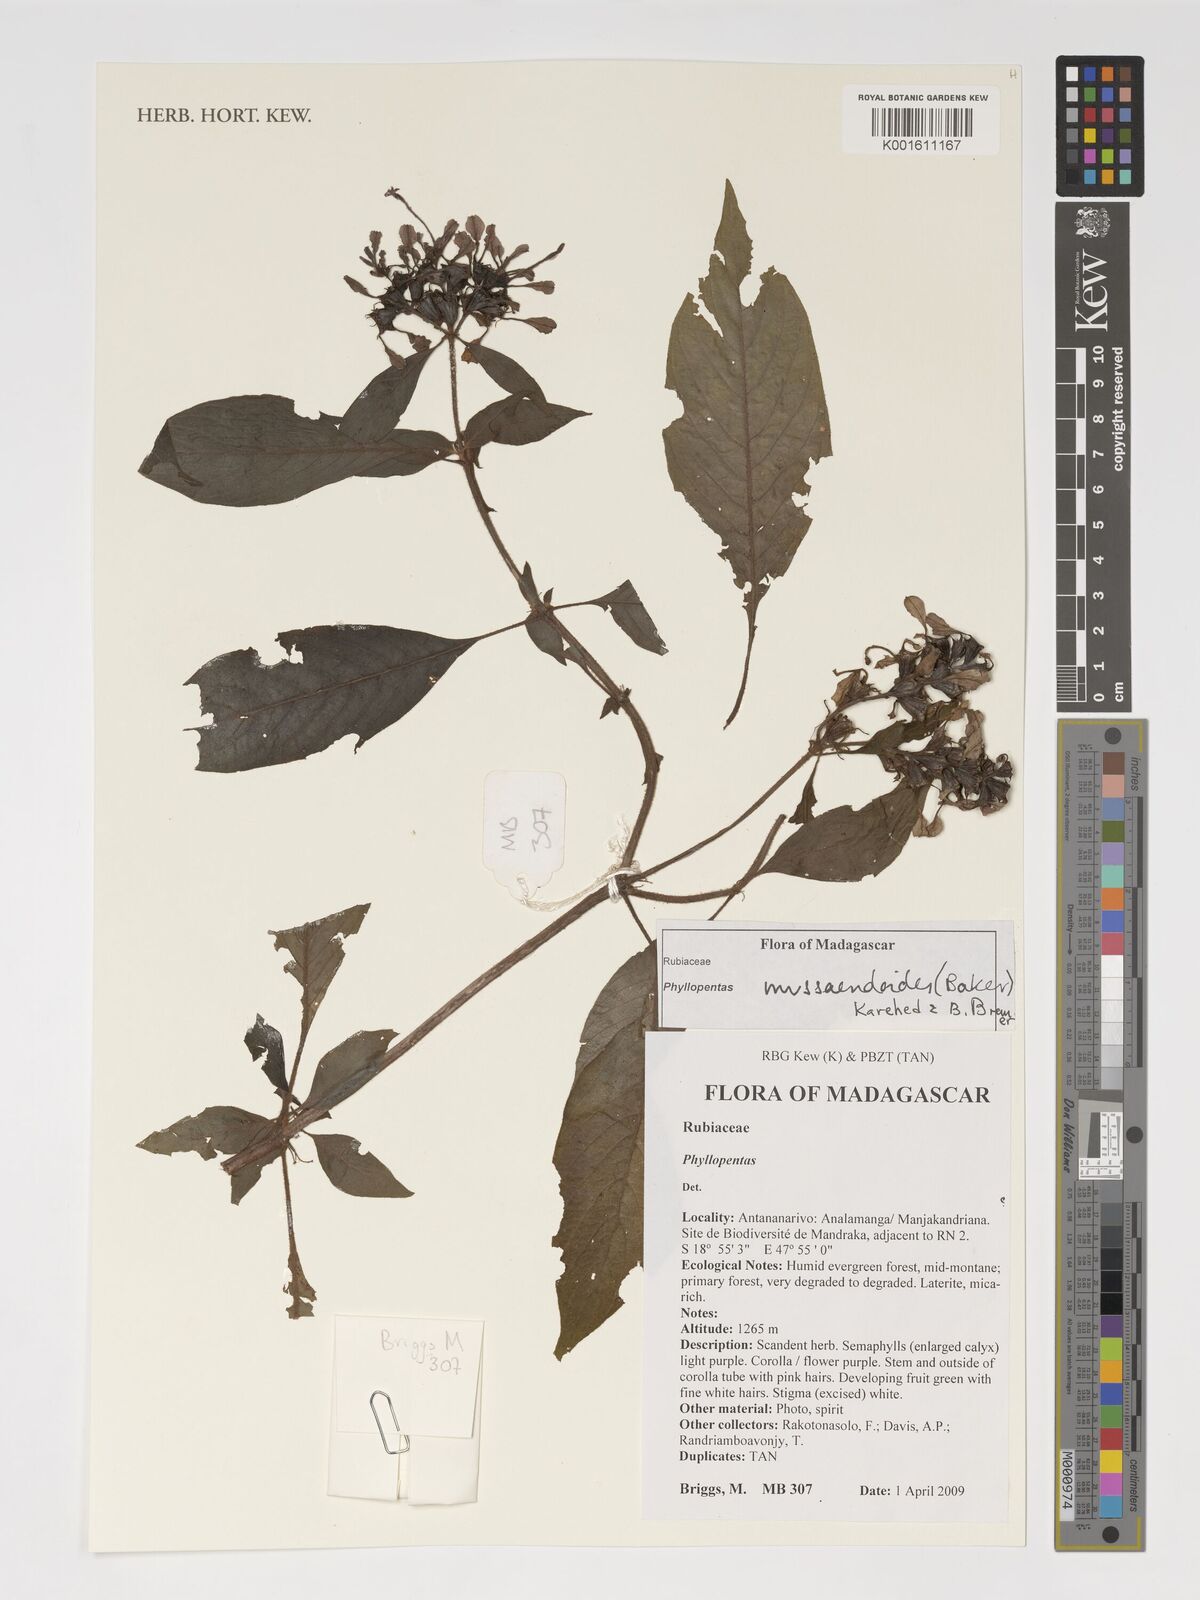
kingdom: Plantae
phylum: Tracheophyta
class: Magnoliopsida
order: Gentianales
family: Rubiaceae
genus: Phyllopentas
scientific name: Phyllopentas mussaendoides
